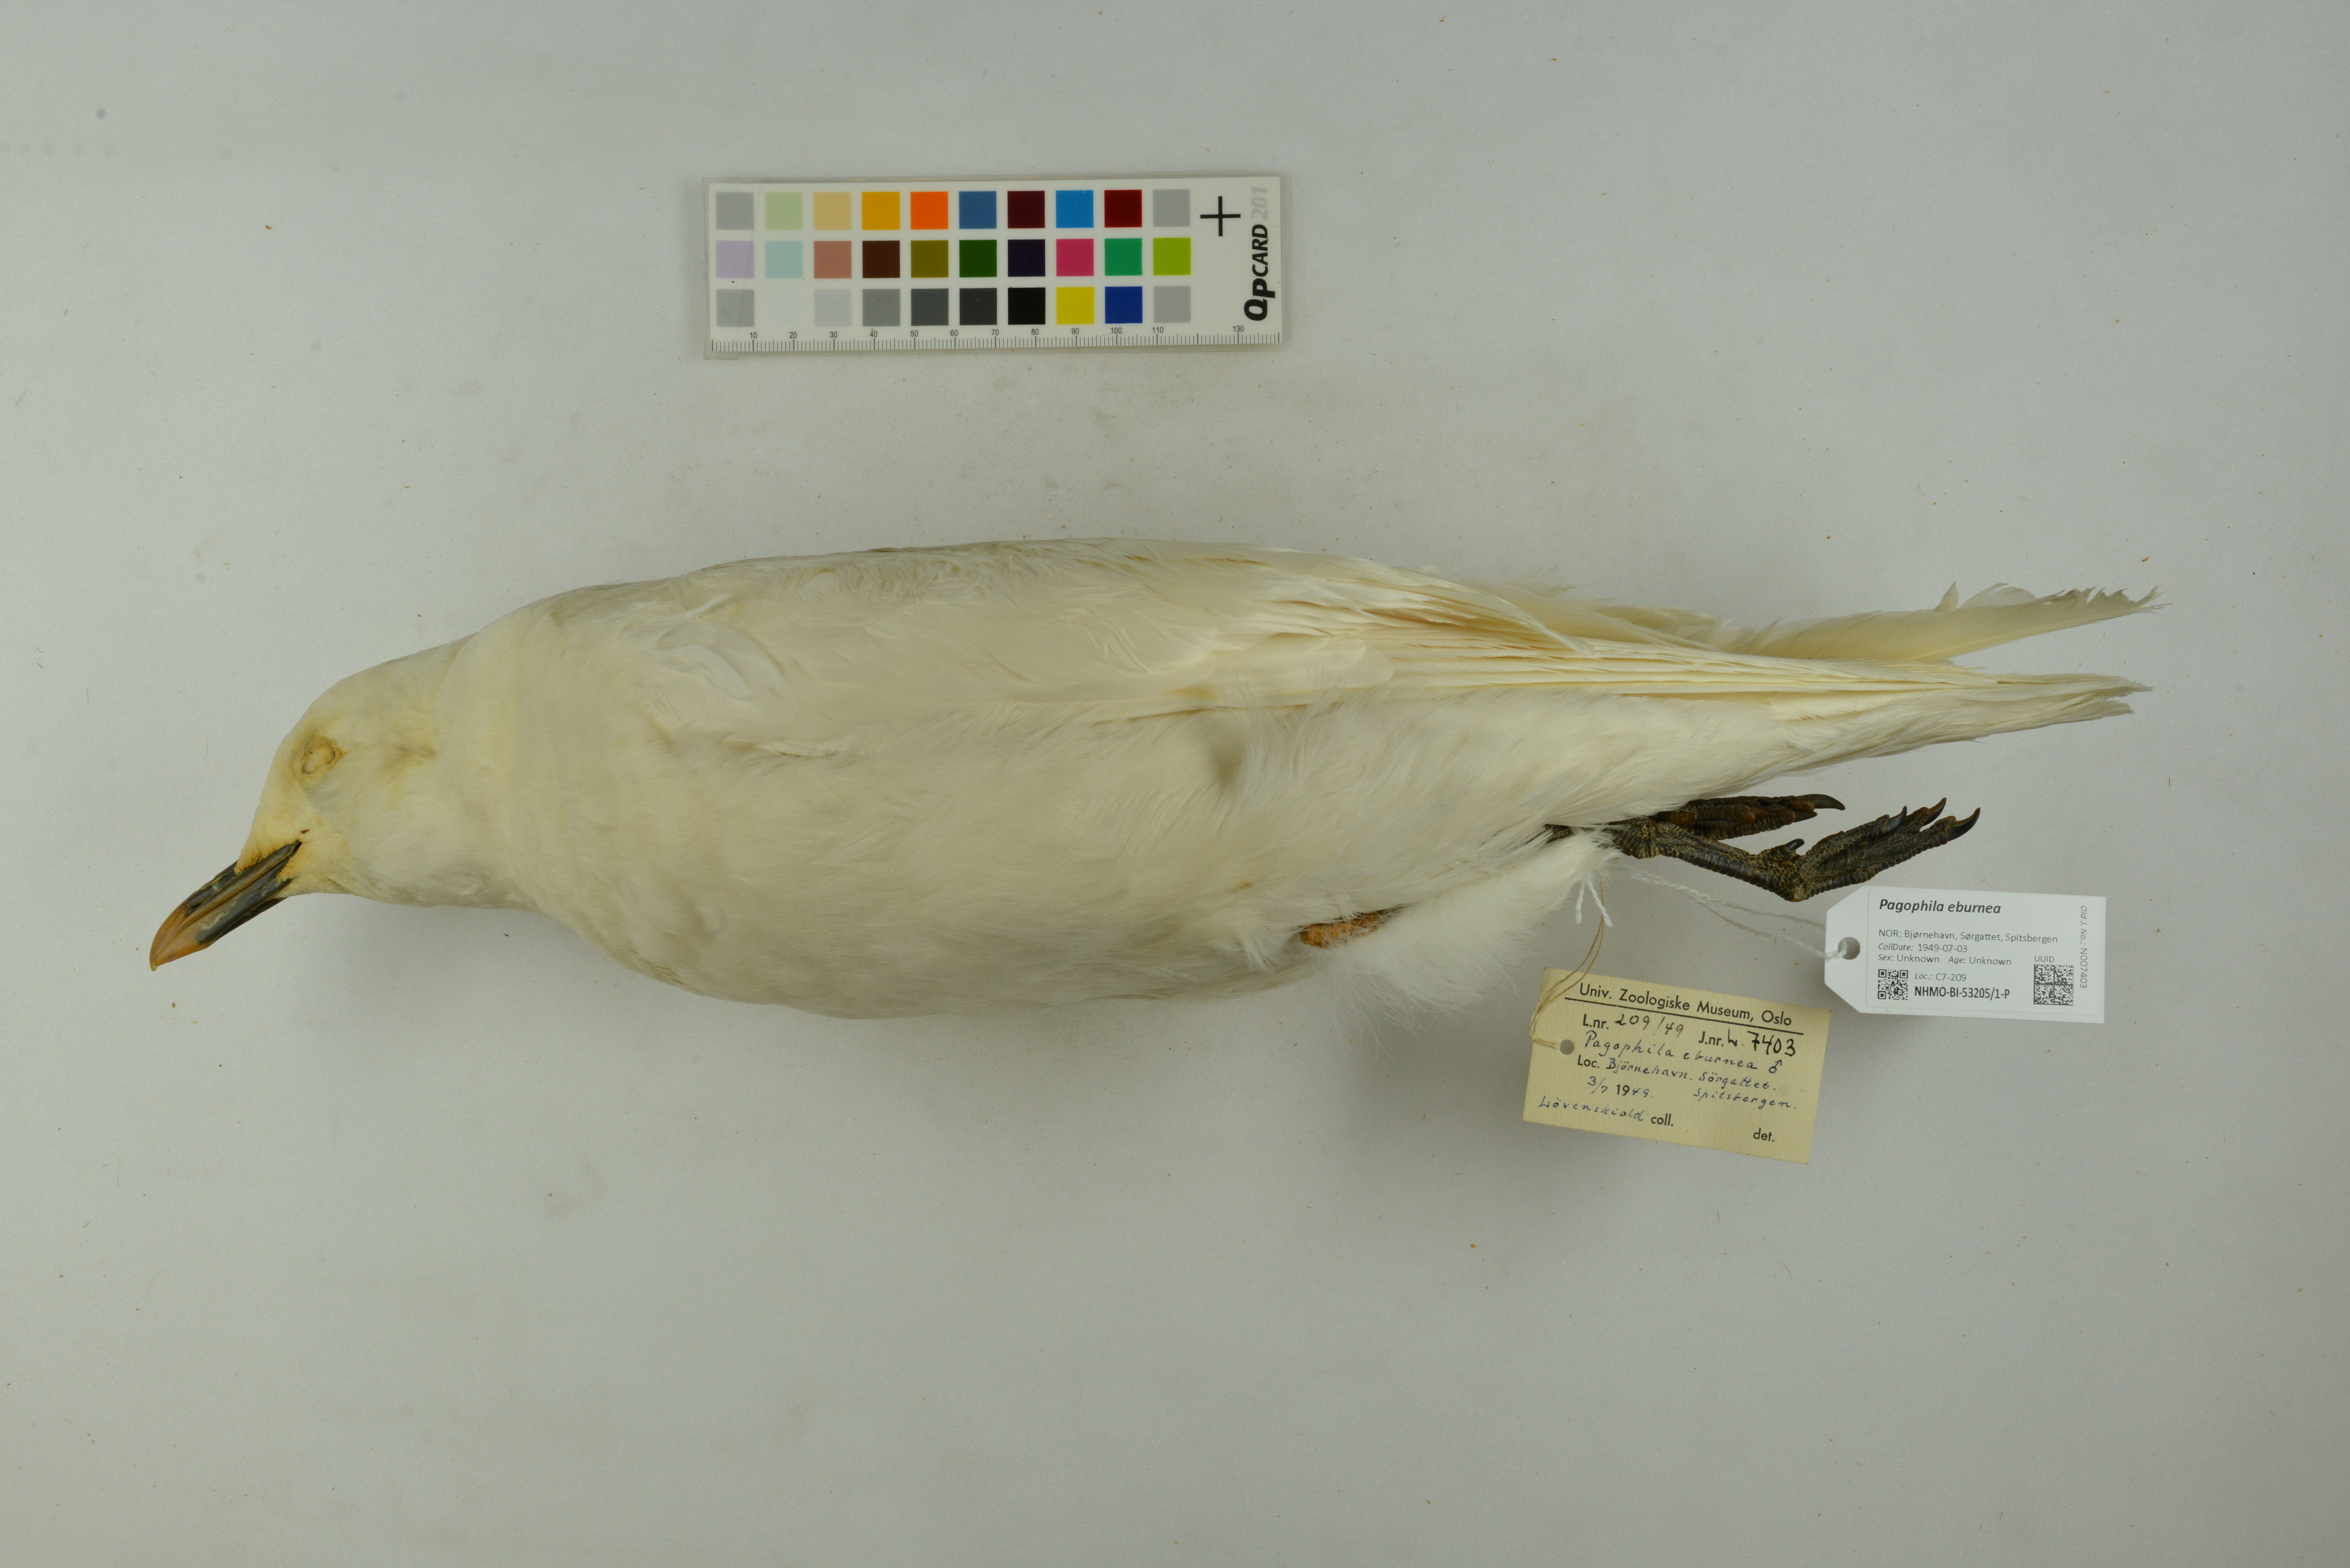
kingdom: Animalia
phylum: Chordata
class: Aves
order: Charadriiformes
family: Laridae
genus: Pagophila
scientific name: Pagophila eburnea
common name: Ivory gull
